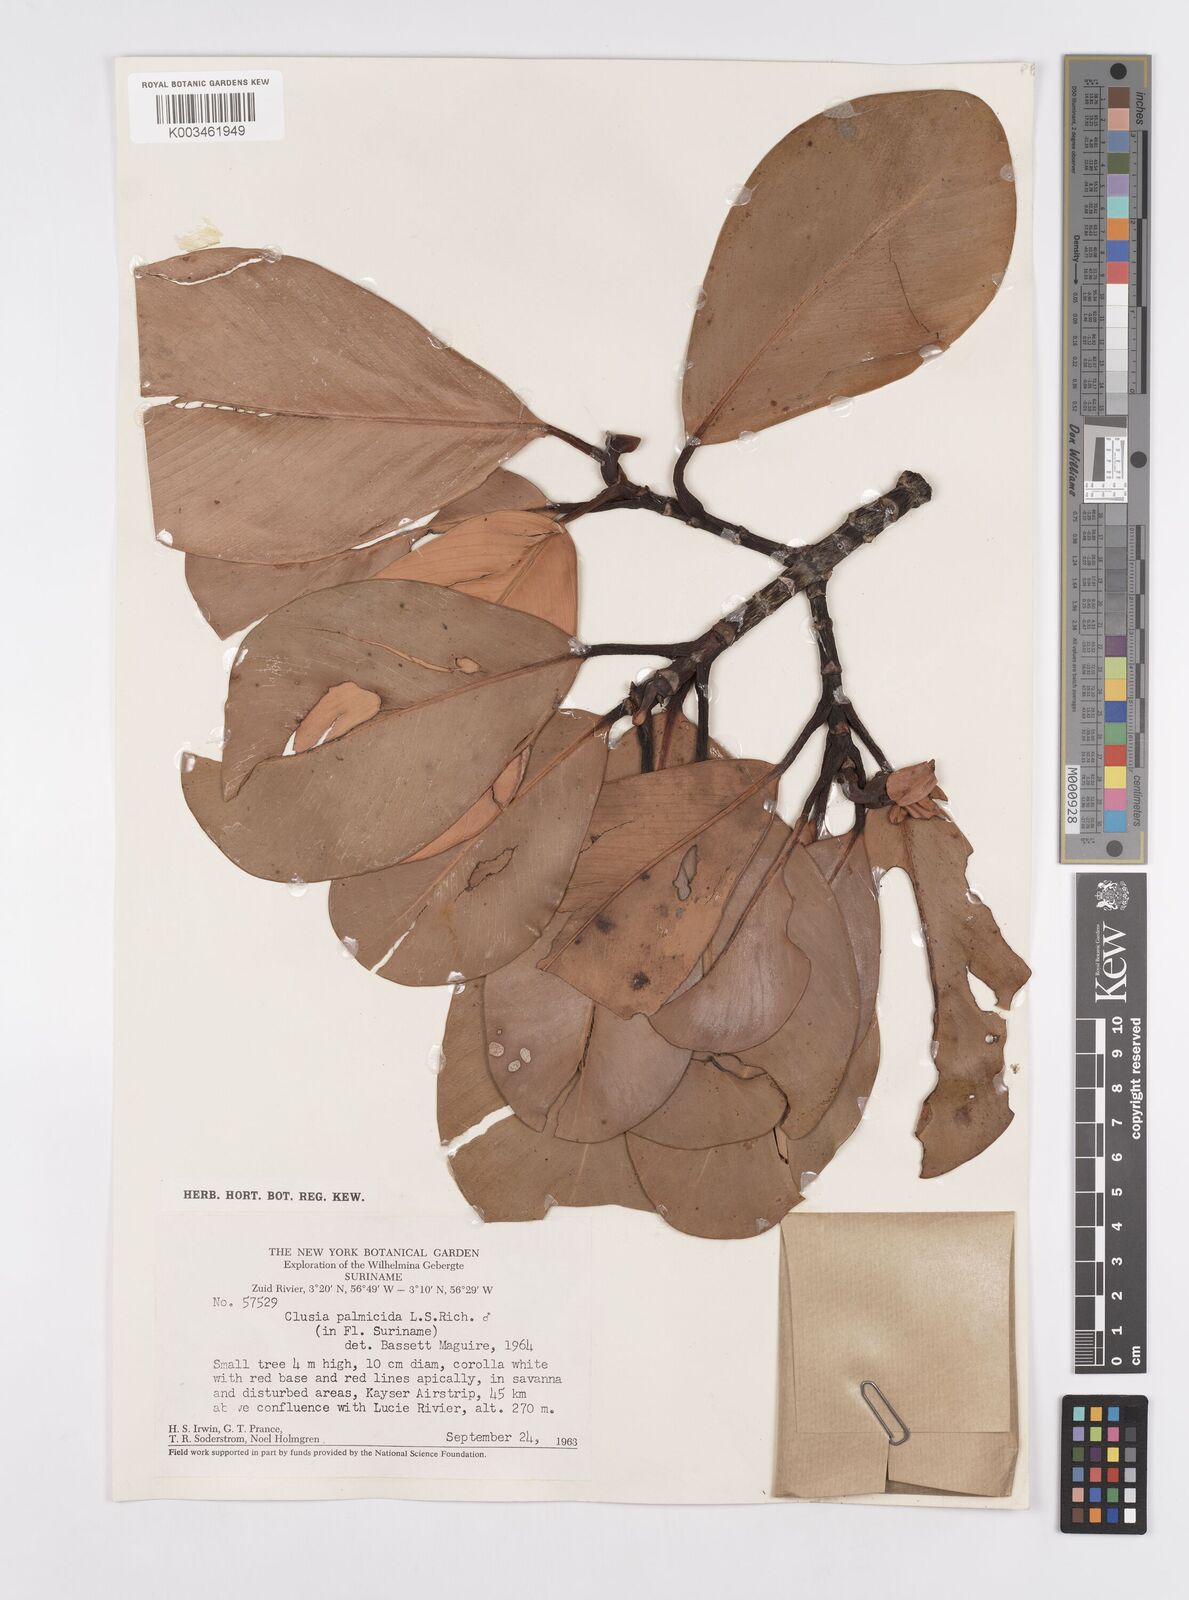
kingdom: Plantae
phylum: Tracheophyta
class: Magnoliopsida
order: Malpighiales
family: Clusiaceae
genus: Clusia
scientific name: Clusia palmicida
